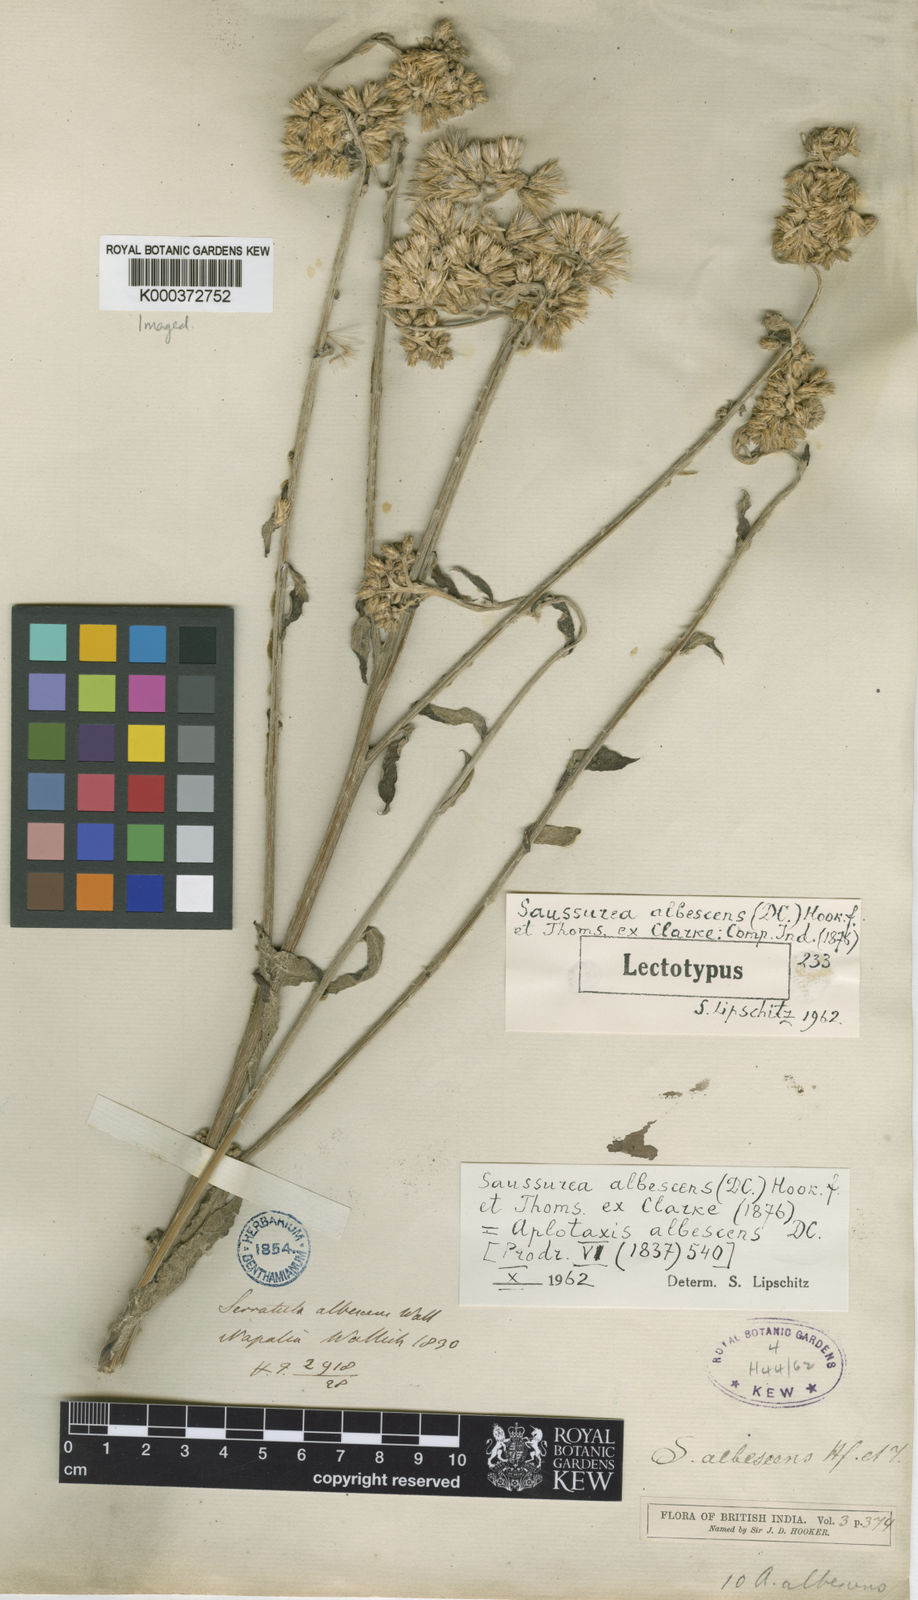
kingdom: Plantae
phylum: Tracheophyta
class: Magnoliopsida
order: Asterales
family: Asteraceae
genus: Saussurea
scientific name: Saussurea
